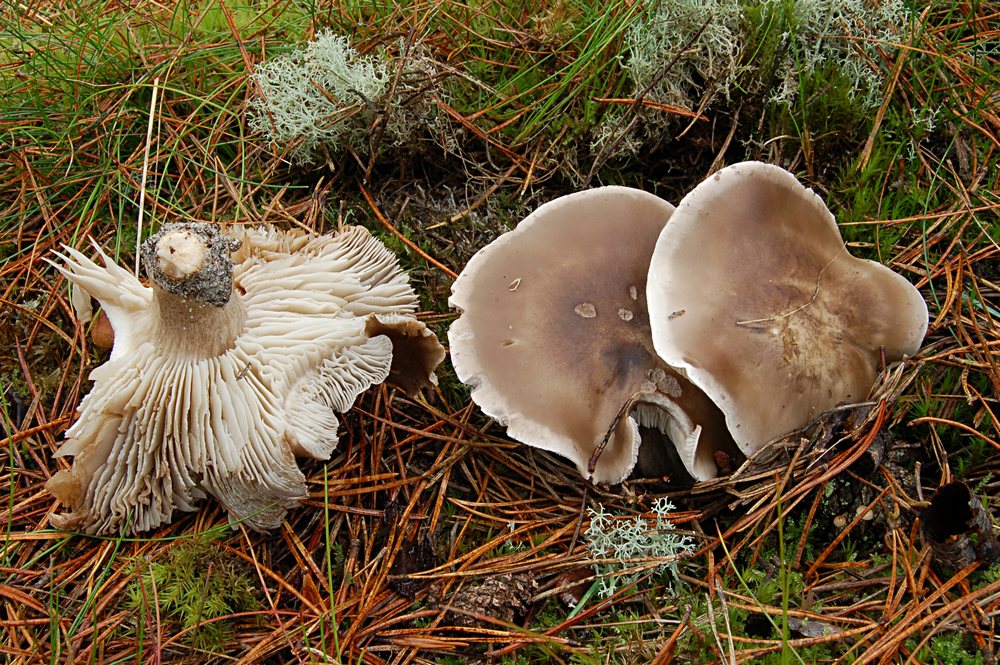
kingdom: Fungi
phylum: Basidiomycota
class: Agaricomycetes
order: Agaricales
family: Tricholomataceae
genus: Tricholoma
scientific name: Tricholoma sudum
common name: tør ridderhat
